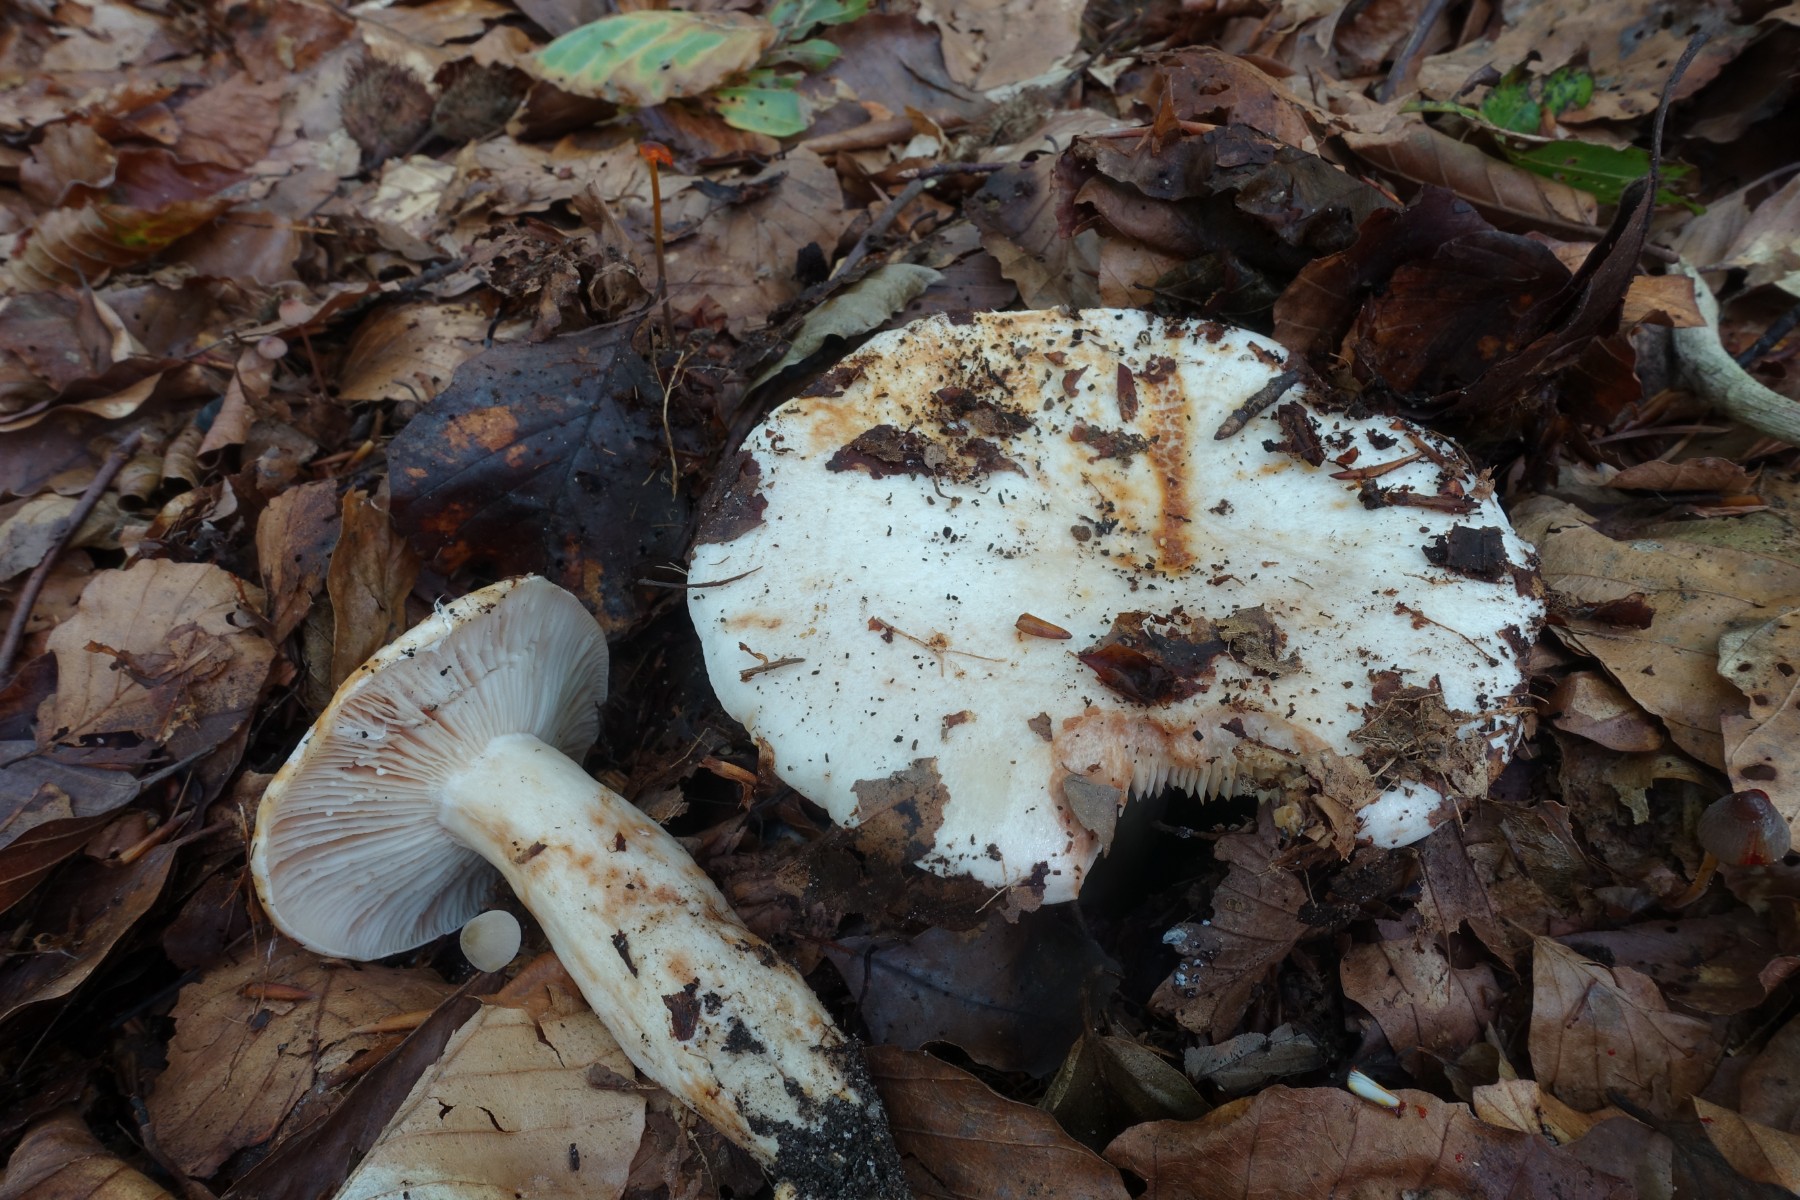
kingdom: Fungi
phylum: Basidiomycota
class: Agaricomycetes
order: Russulales
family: Russulaceae
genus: Lactarius
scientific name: Lactarius pallidus
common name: bleg mælkehat
